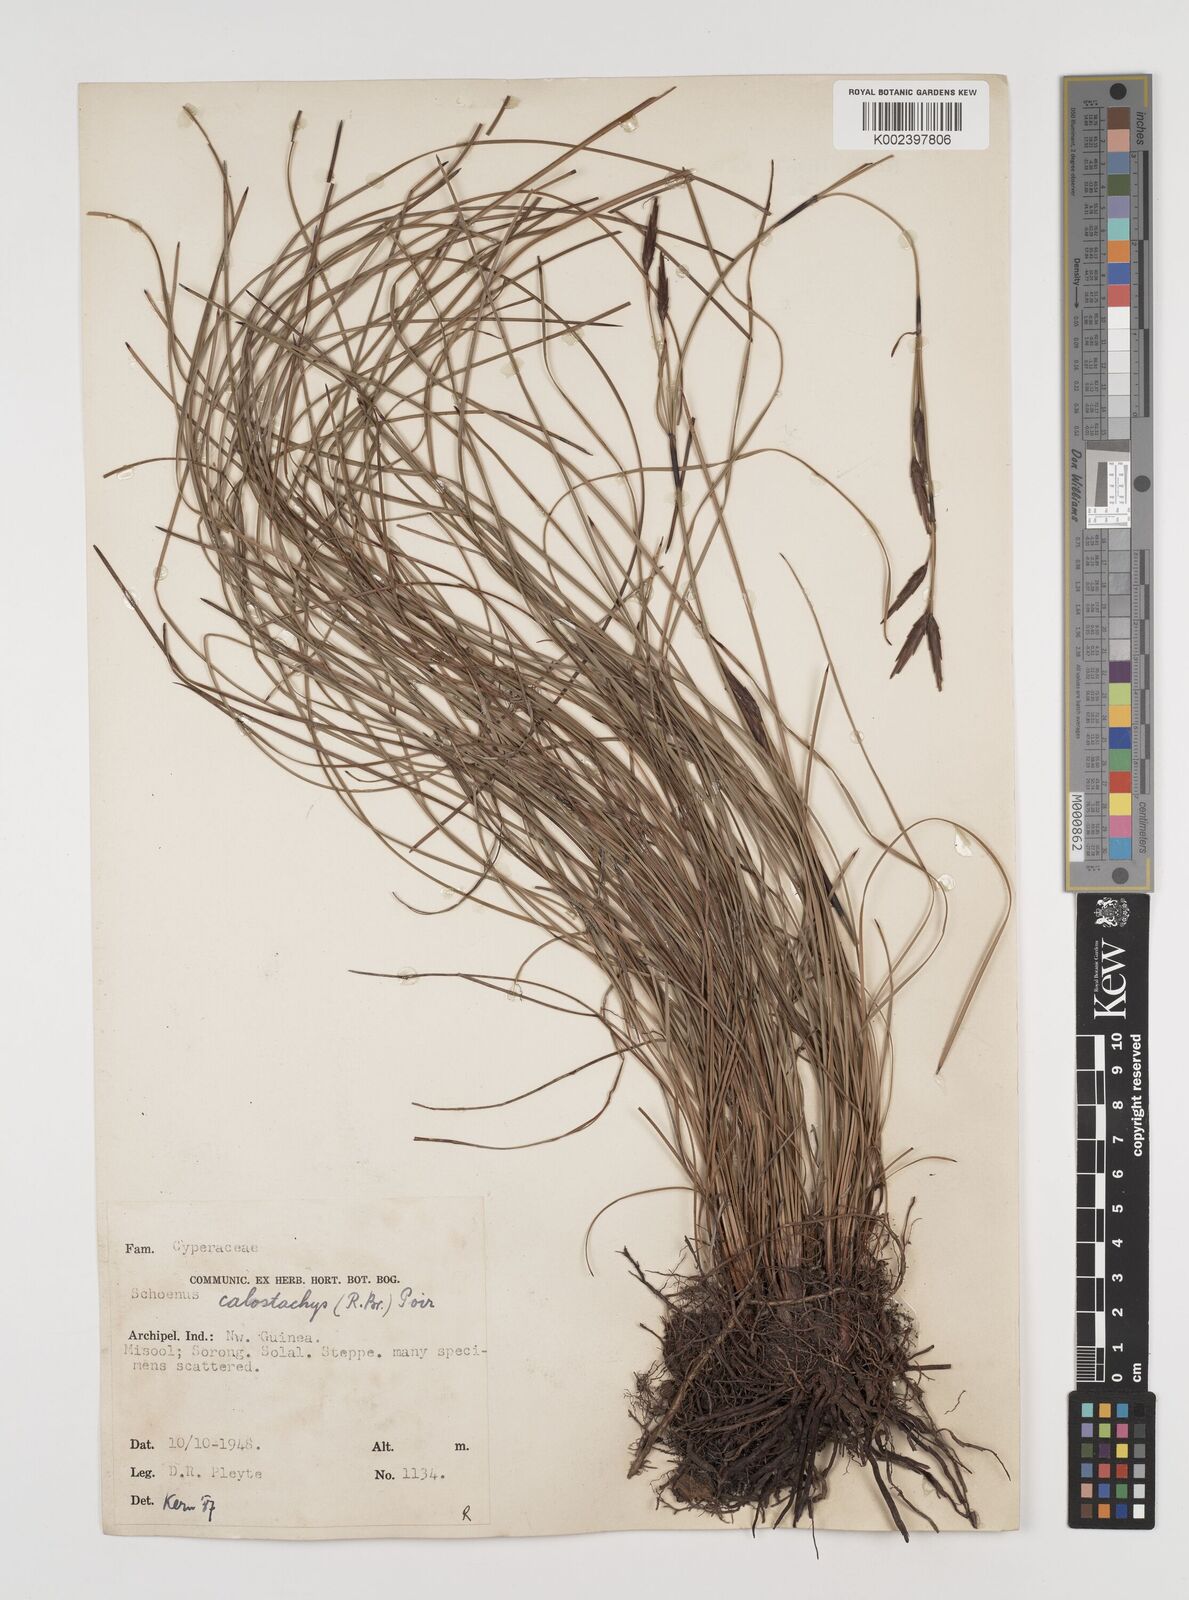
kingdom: Plantae
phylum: Tracheophyta
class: Liliopsida
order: Poales
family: Cyperaceae
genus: Schoenus
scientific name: Schoenus calostachyus
